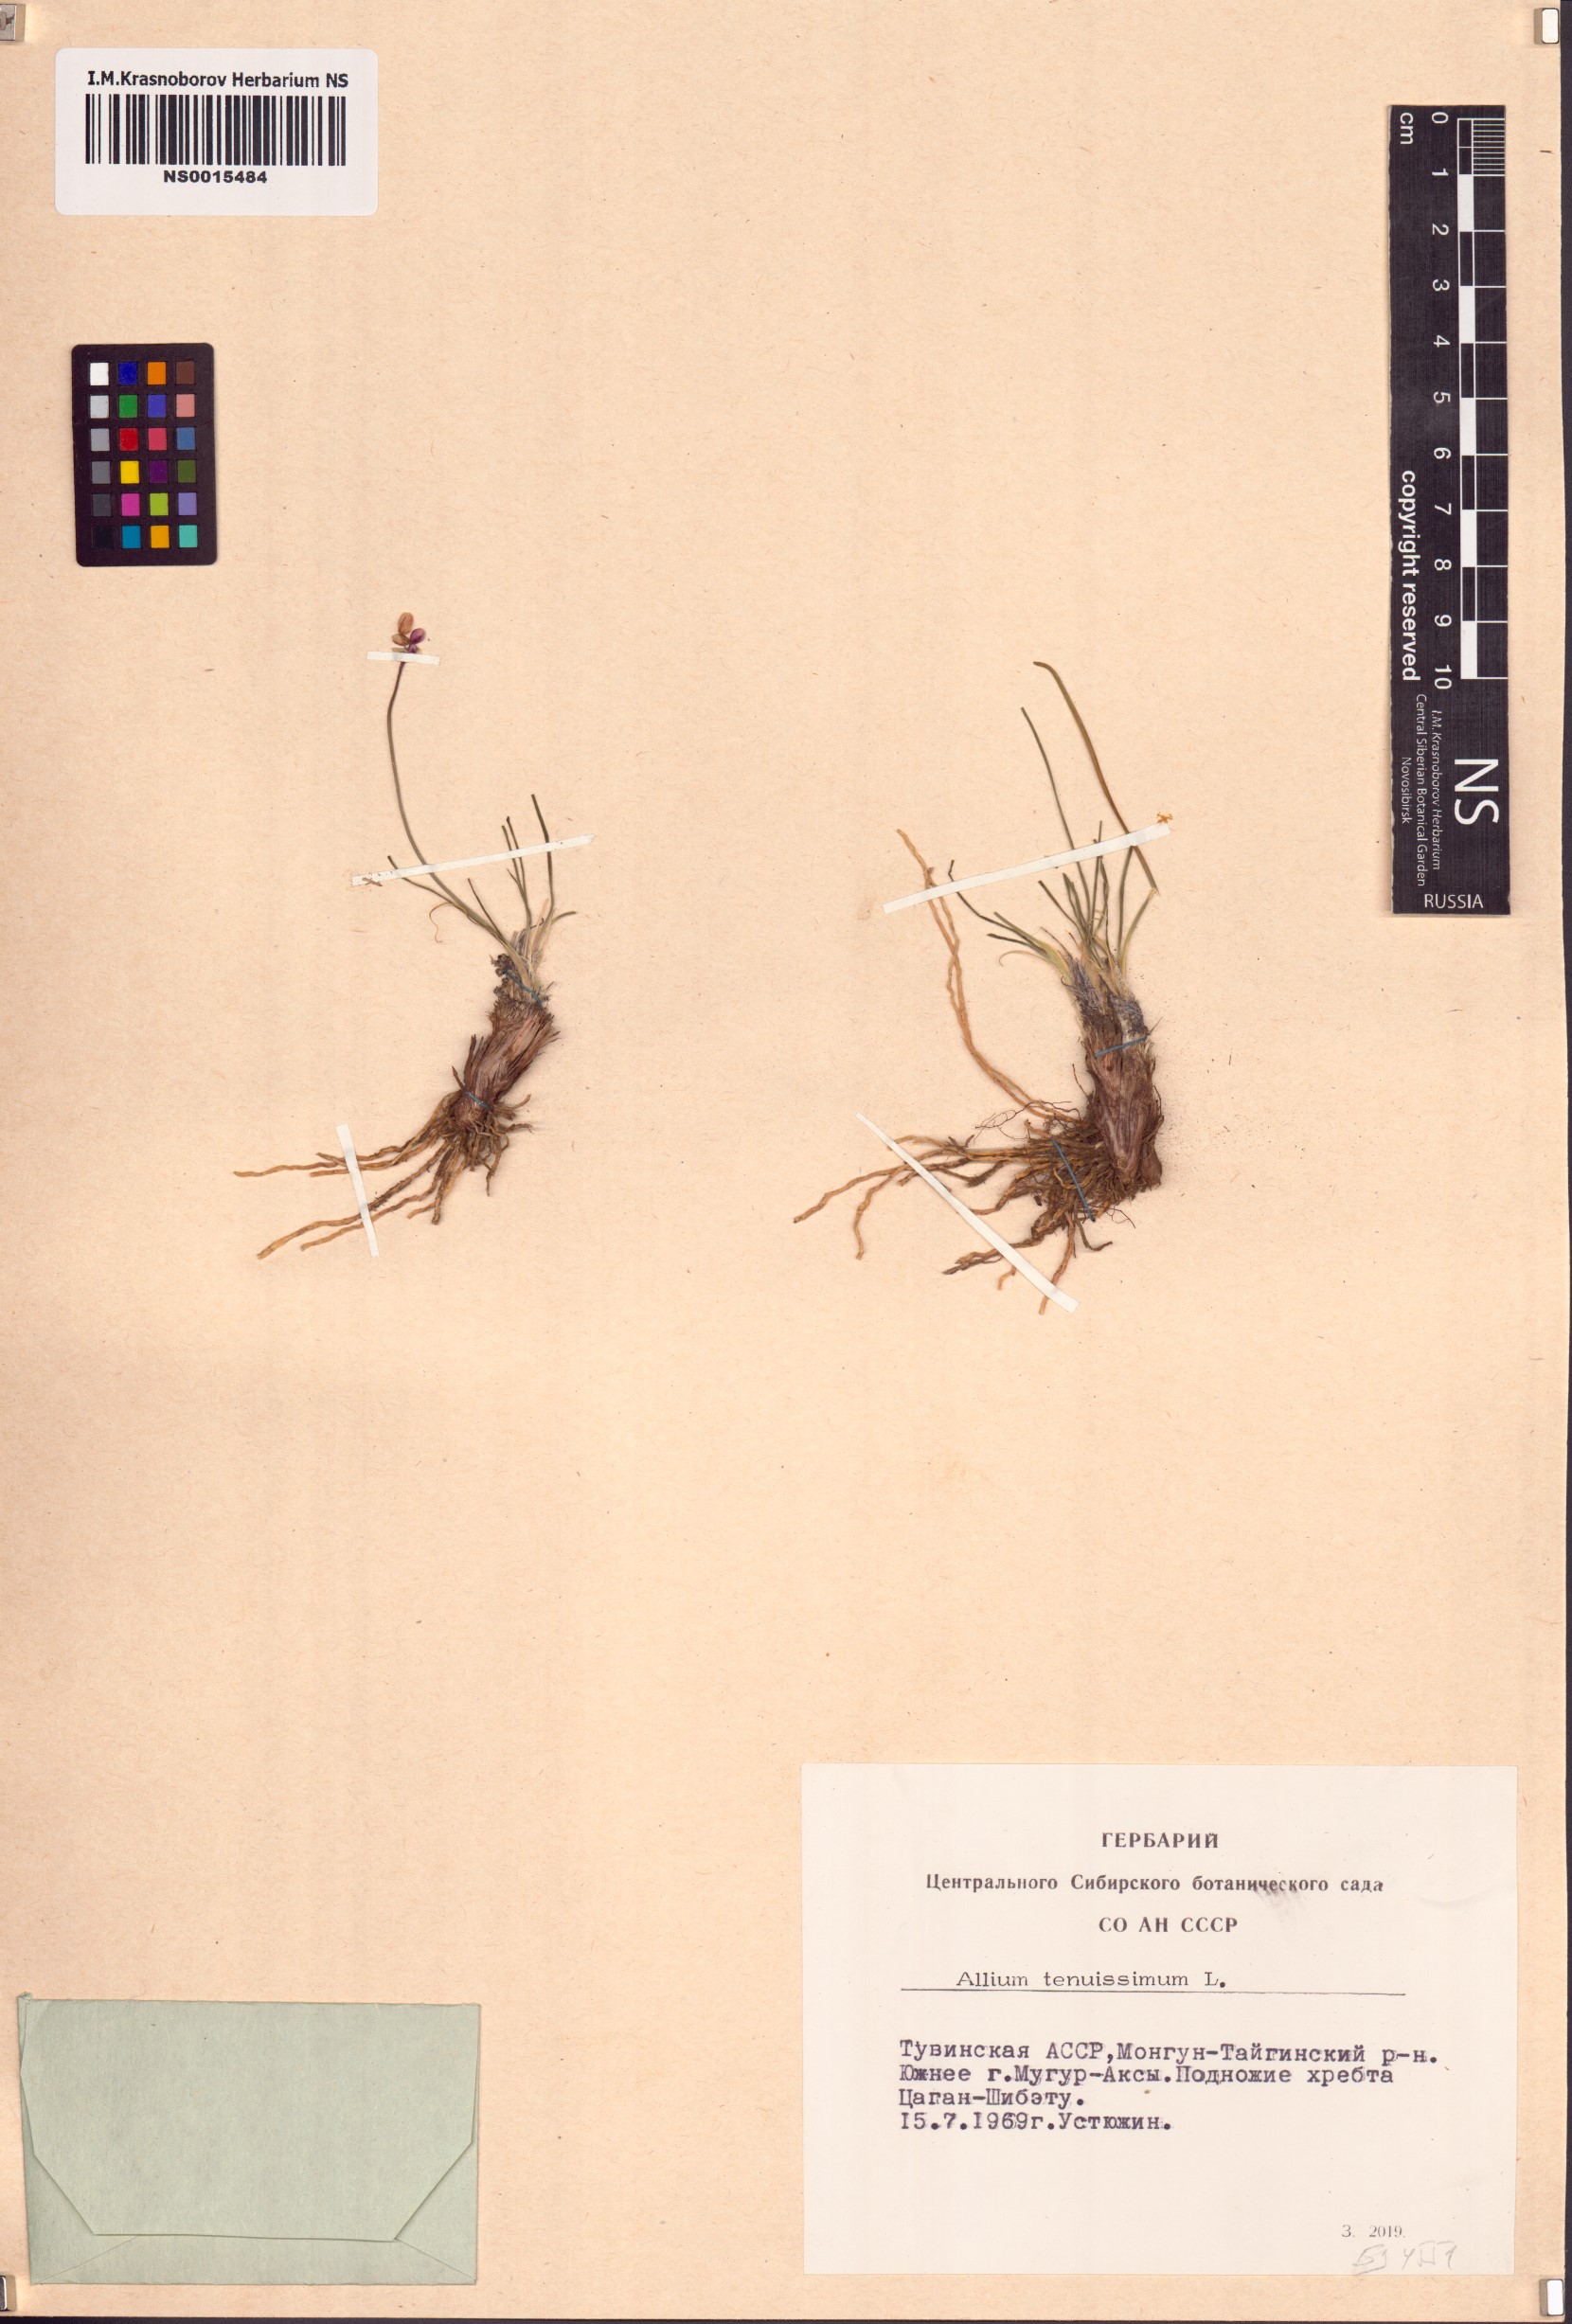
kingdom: Plantae
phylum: Tracheophyta
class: Liliopsida
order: Asparagales
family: Amaryllidaceae
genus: Allium
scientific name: Allium tenuissimum
